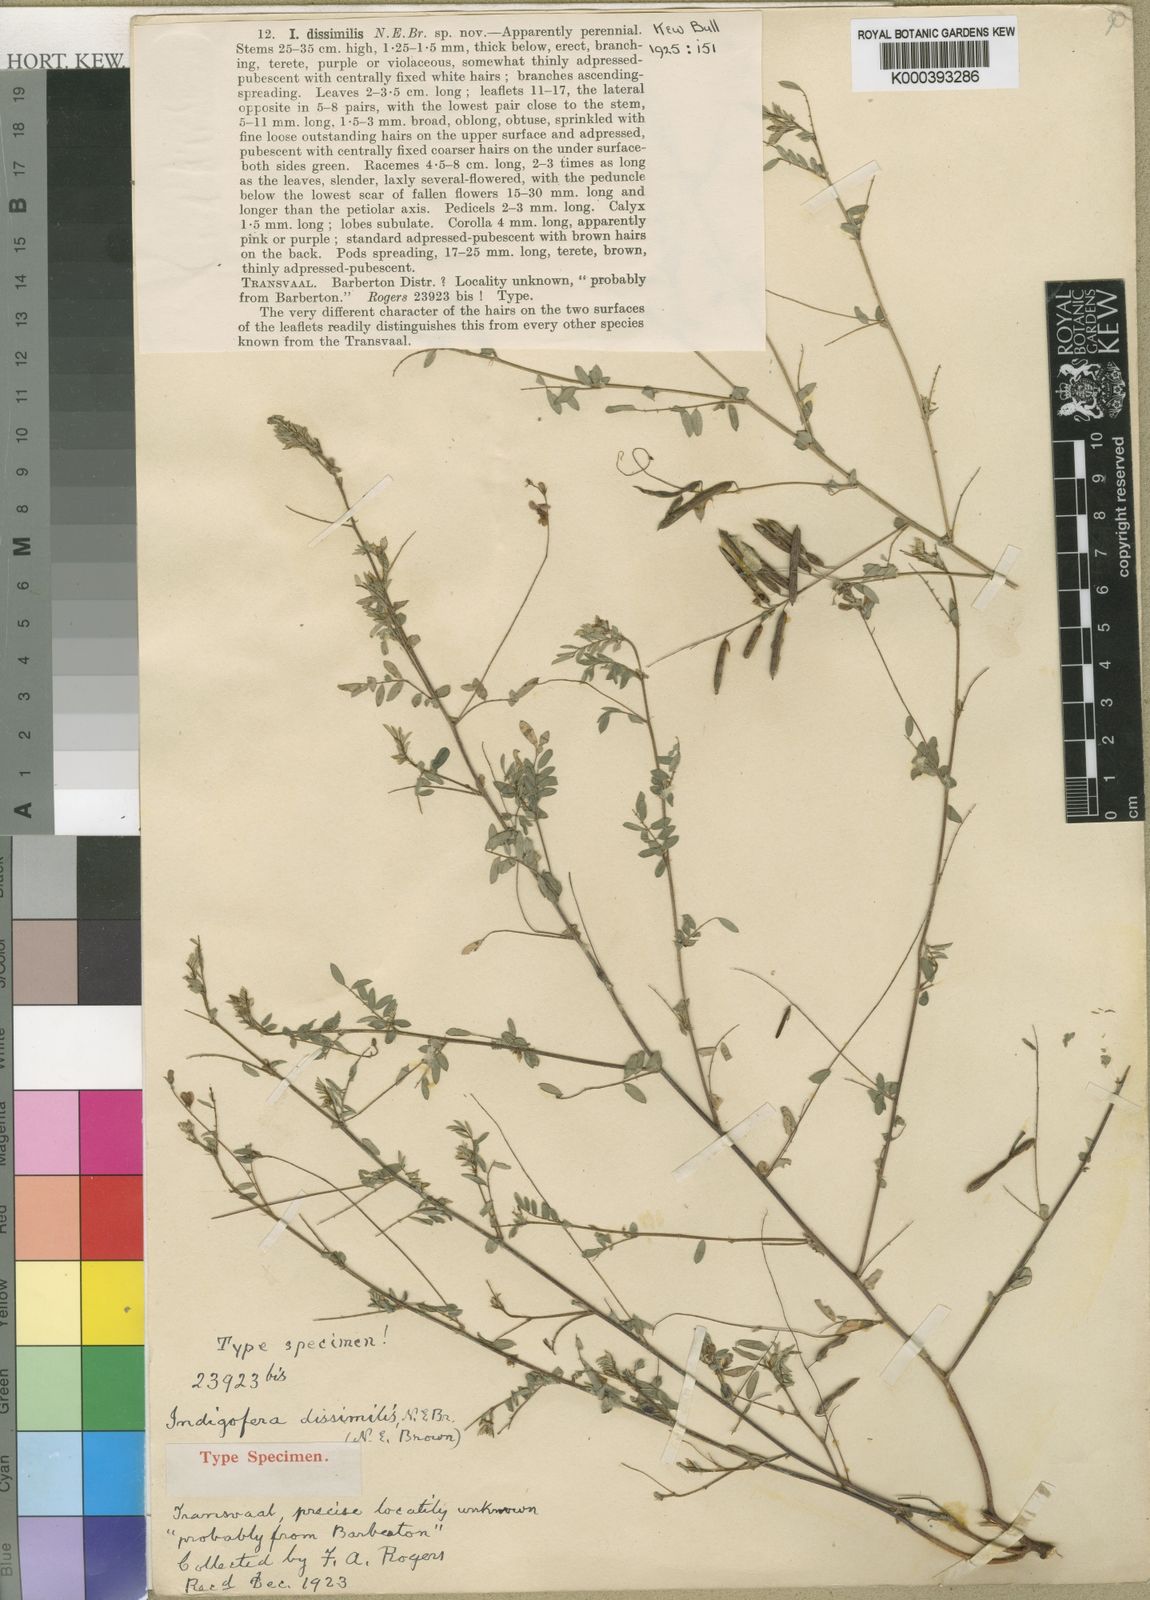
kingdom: Plantae
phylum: Tracheophyta
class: Magnoliopsida
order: Fabales
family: Fabaceae
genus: Indigofera
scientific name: Indigofera vicioides
